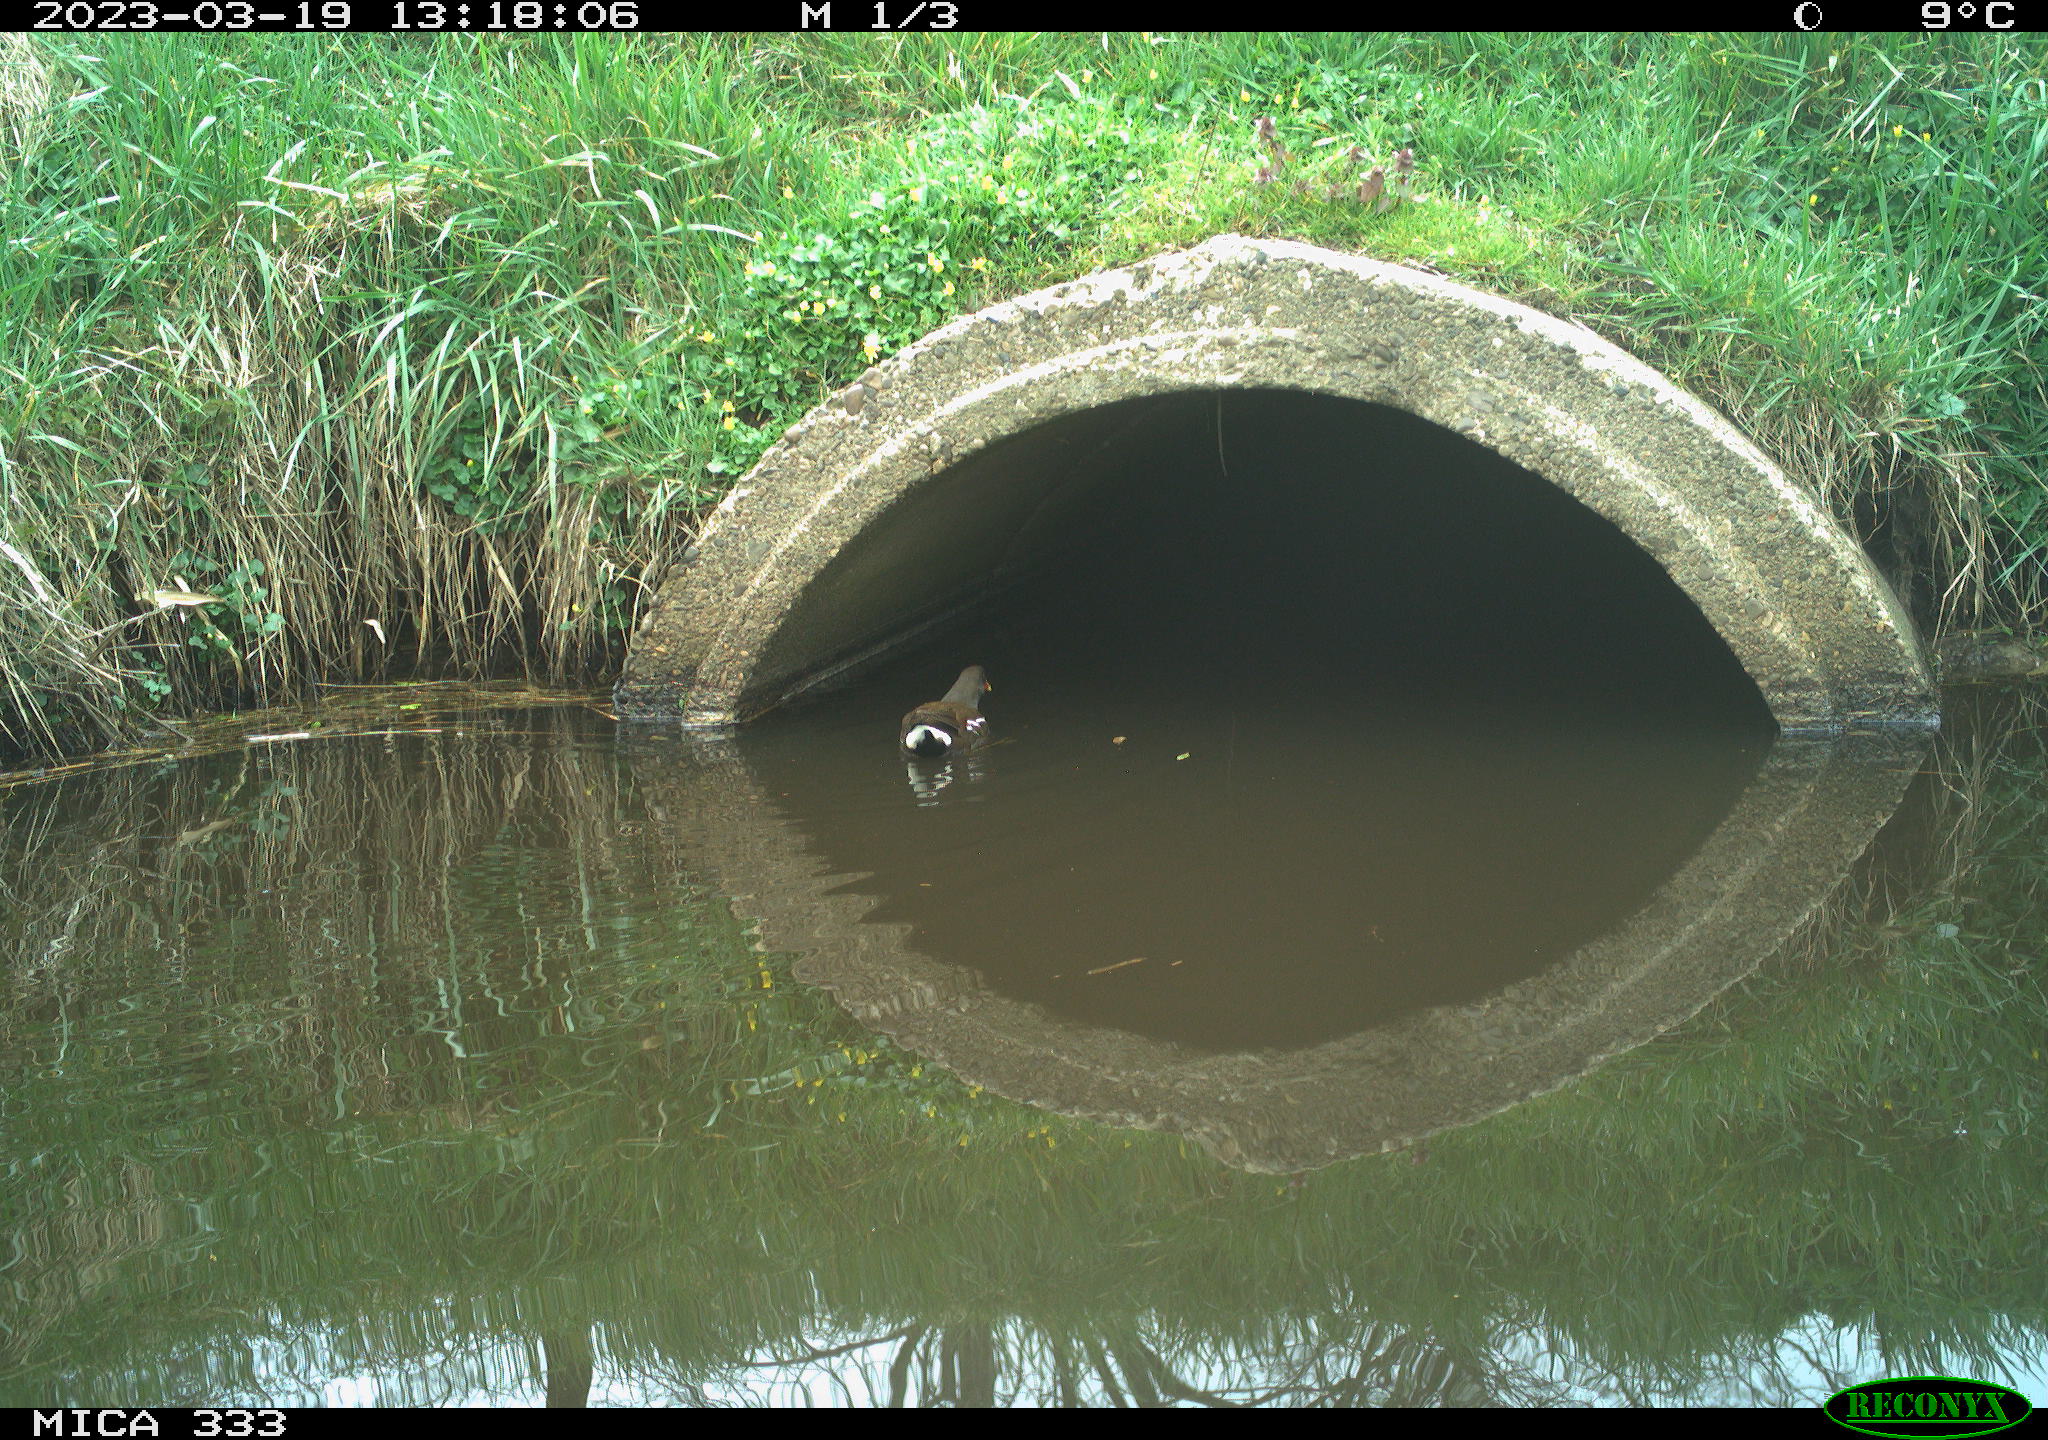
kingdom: Animalia
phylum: Chordata
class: Aves
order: Gruiformes
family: Rallidae
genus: Gallinula
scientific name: Gallinula chloropus
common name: Common moorhen
